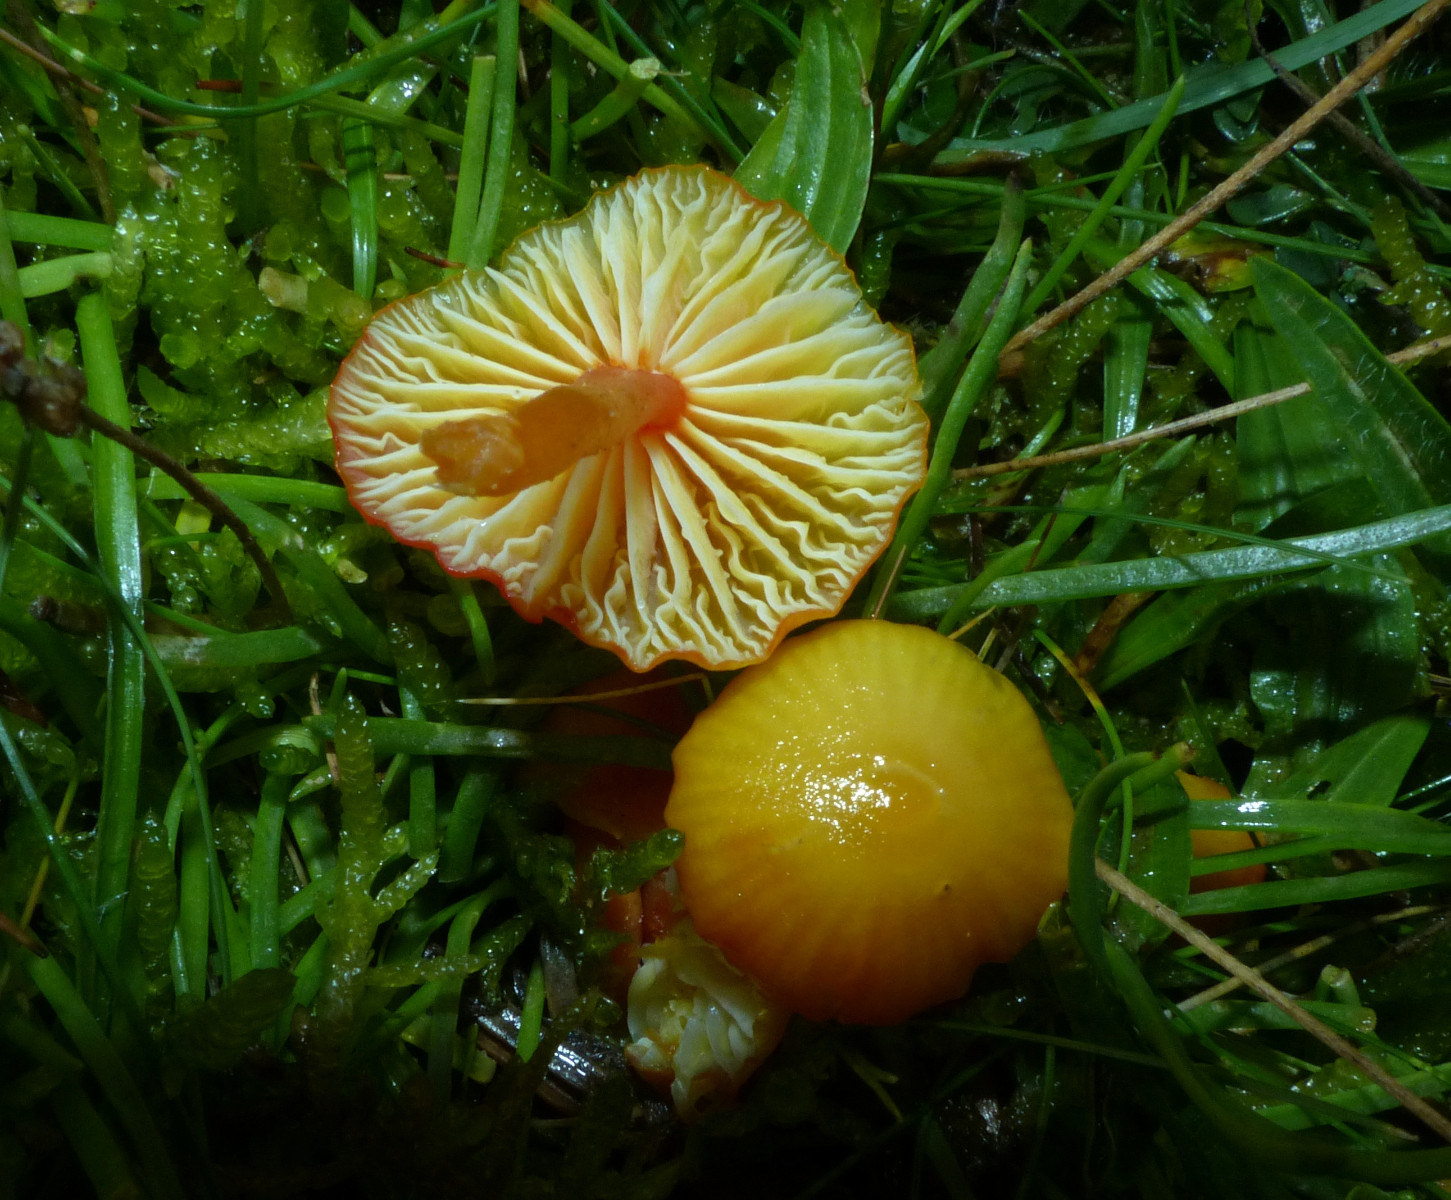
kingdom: Fungi
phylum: Basidiomycota
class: Agaricomycetes
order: Agaricales
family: Hygrophoraceae
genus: Hygrocybe
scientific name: Hygrocybe insipida
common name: liden vokshat
